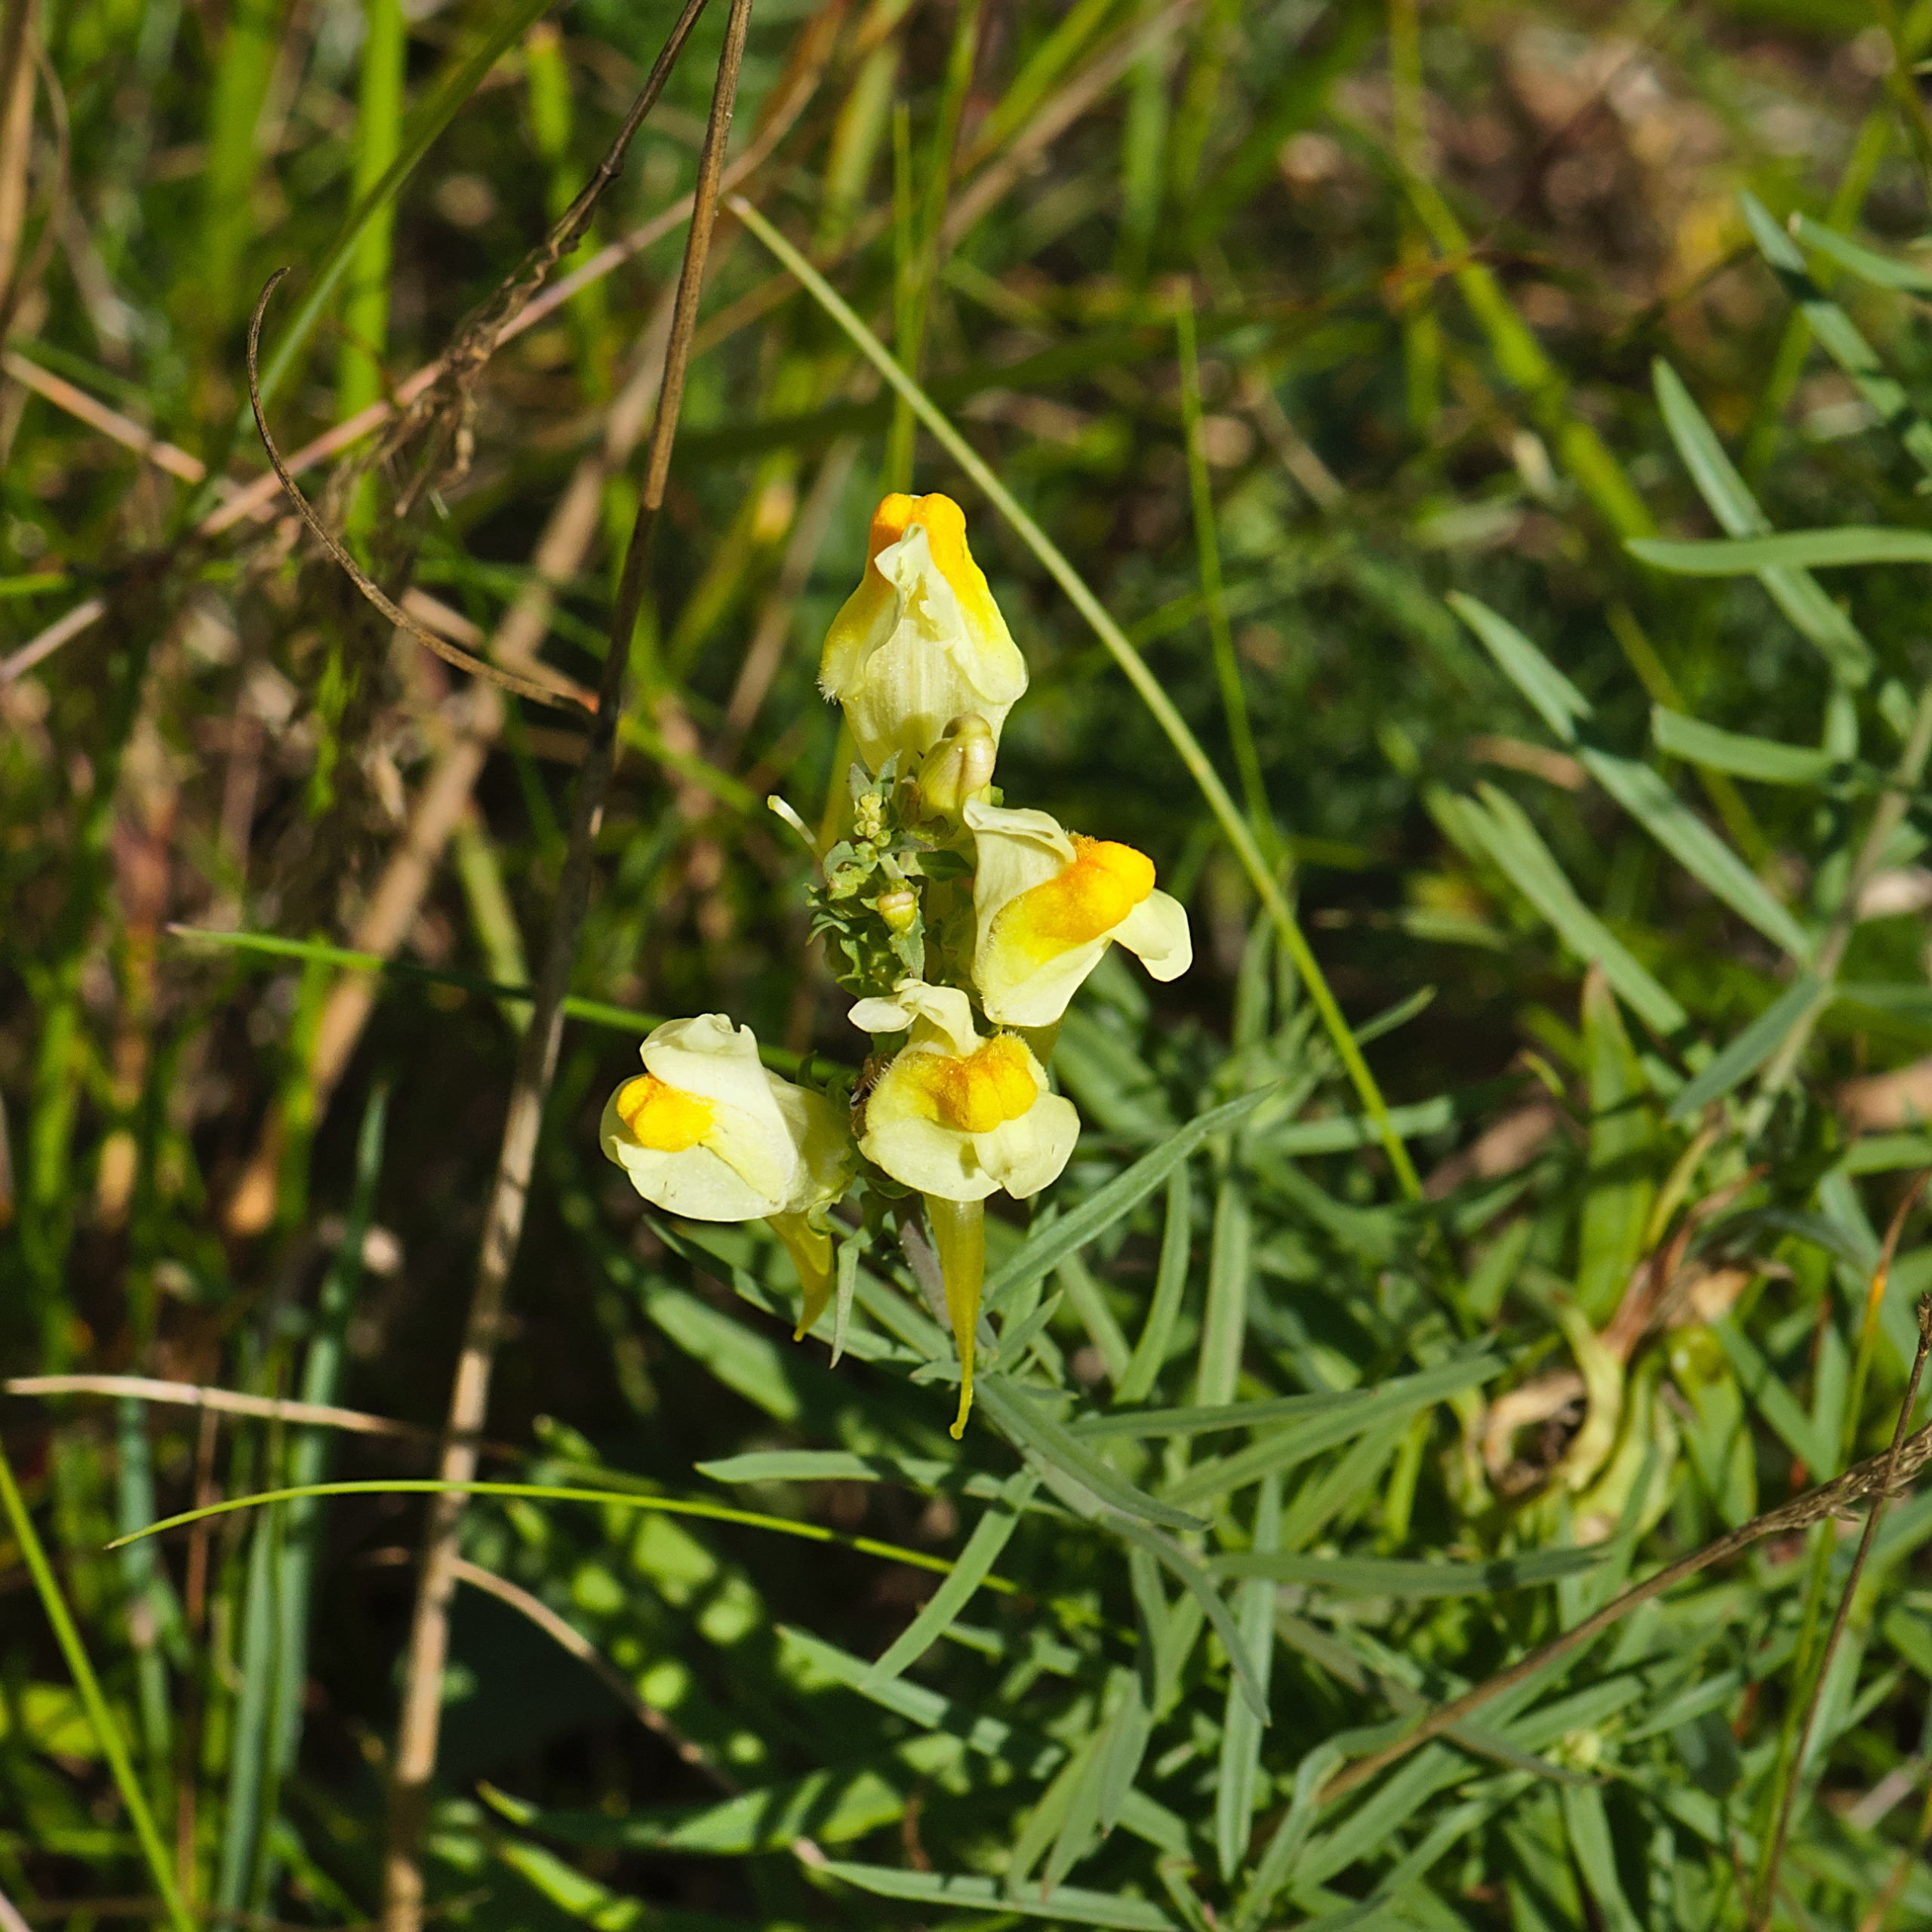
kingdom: Plantae
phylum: Tracheophyta
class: Magnoliopsida
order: Lamiales
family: Plantaginaceae
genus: Linaria
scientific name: Linaria vulgaris
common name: Almindelig torskemund
